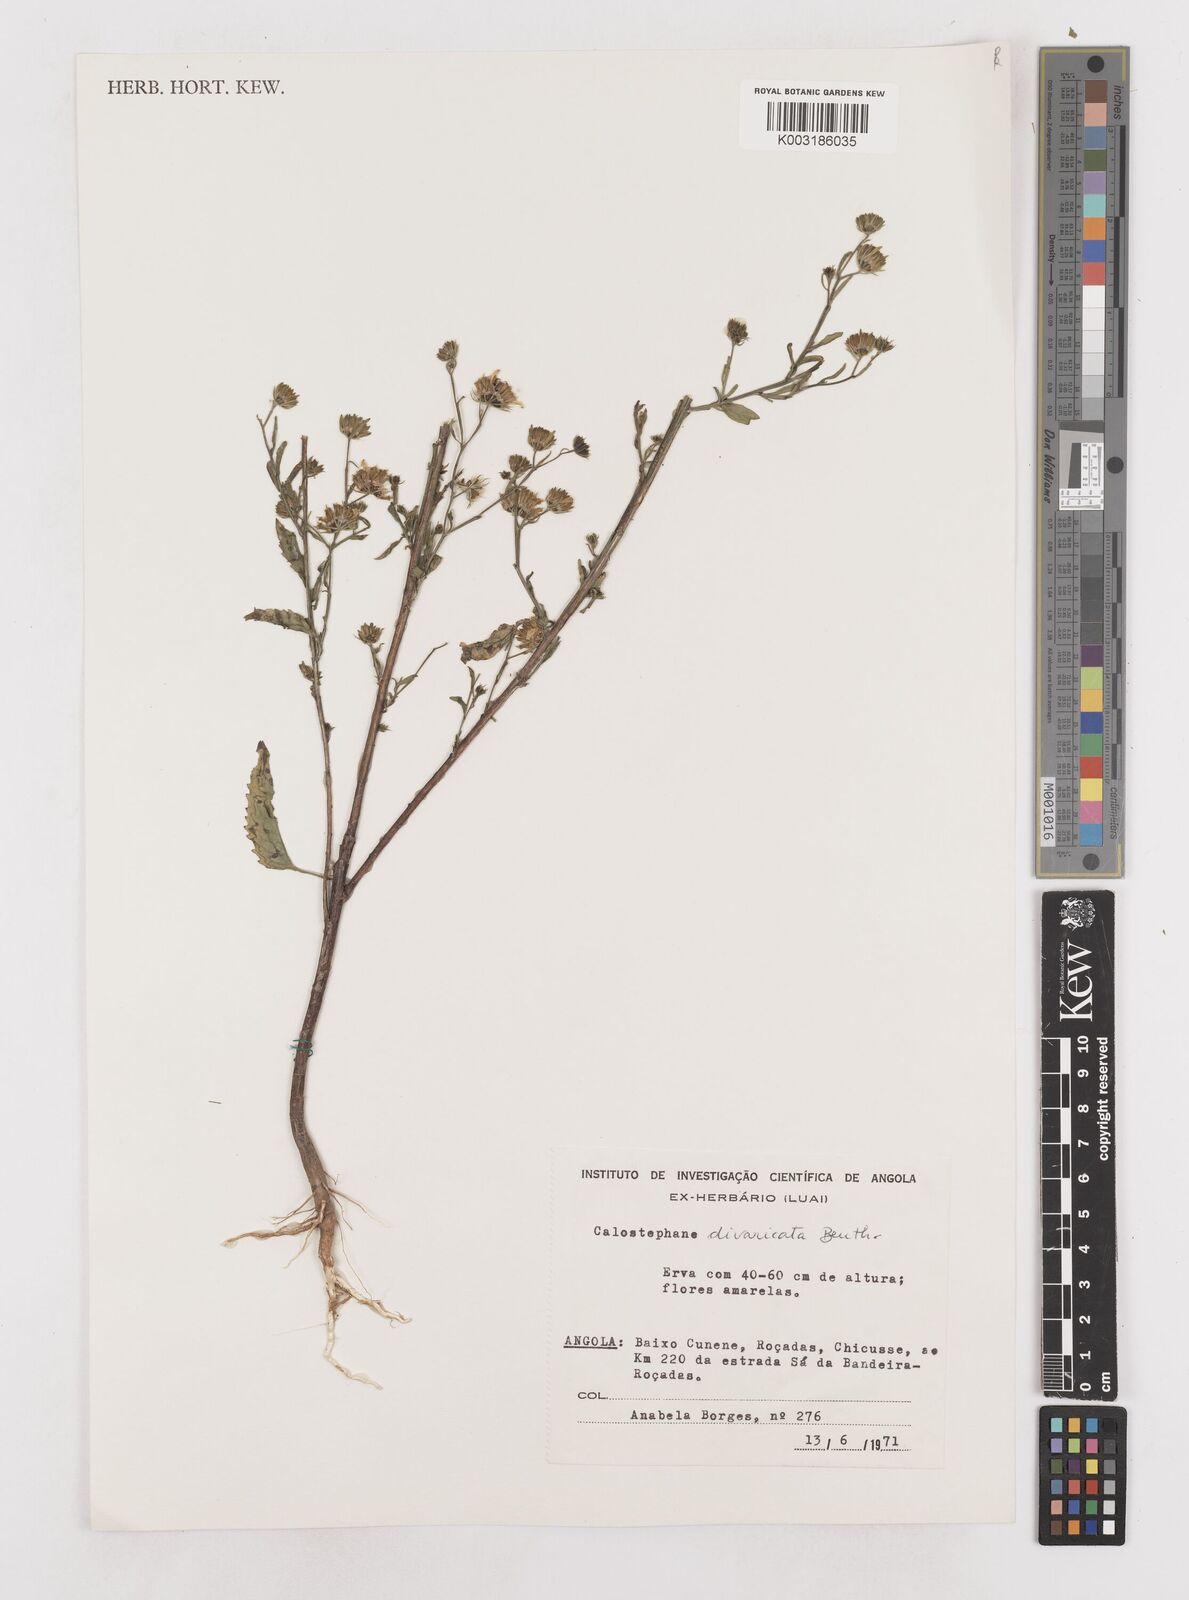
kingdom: Plantae
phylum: Tracheophyta
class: Magnoliopsida
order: Asterales
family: Asteraceae
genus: Calostephane
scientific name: Calostephane divaricata
